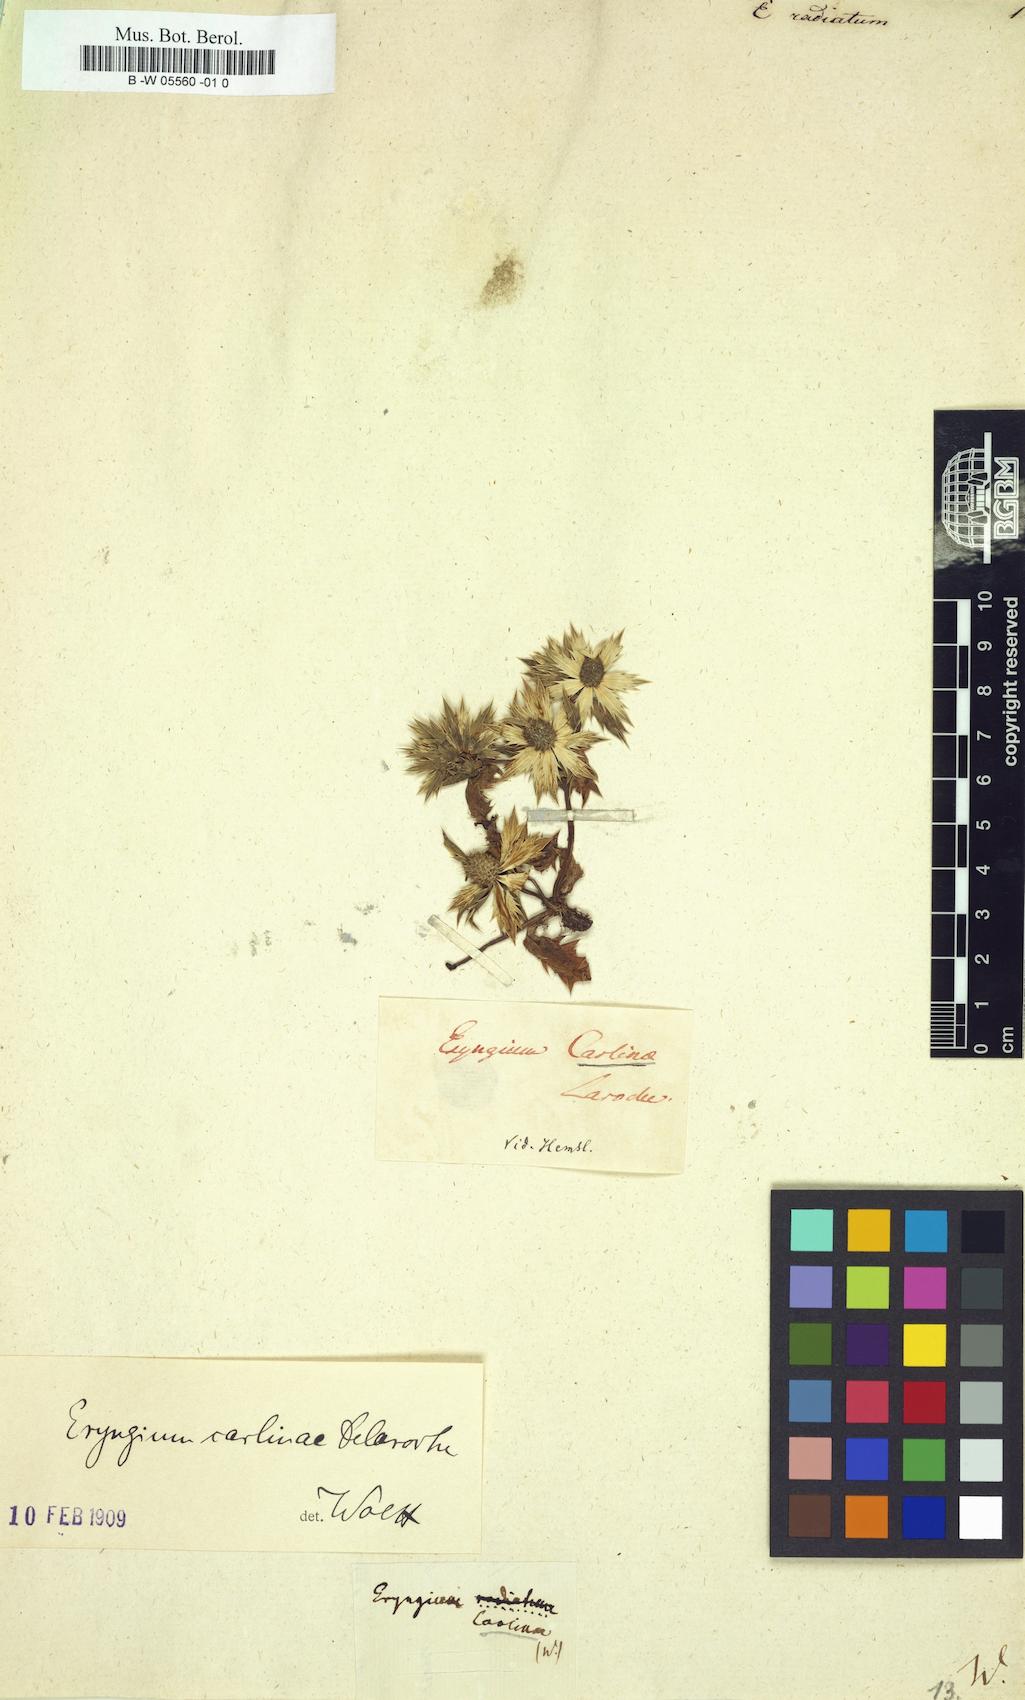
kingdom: Plantae
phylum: Tracheophyta
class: Magnoliopsida
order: Apiales
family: Apiaceae
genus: Eryngium
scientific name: Eryngium carlinae
